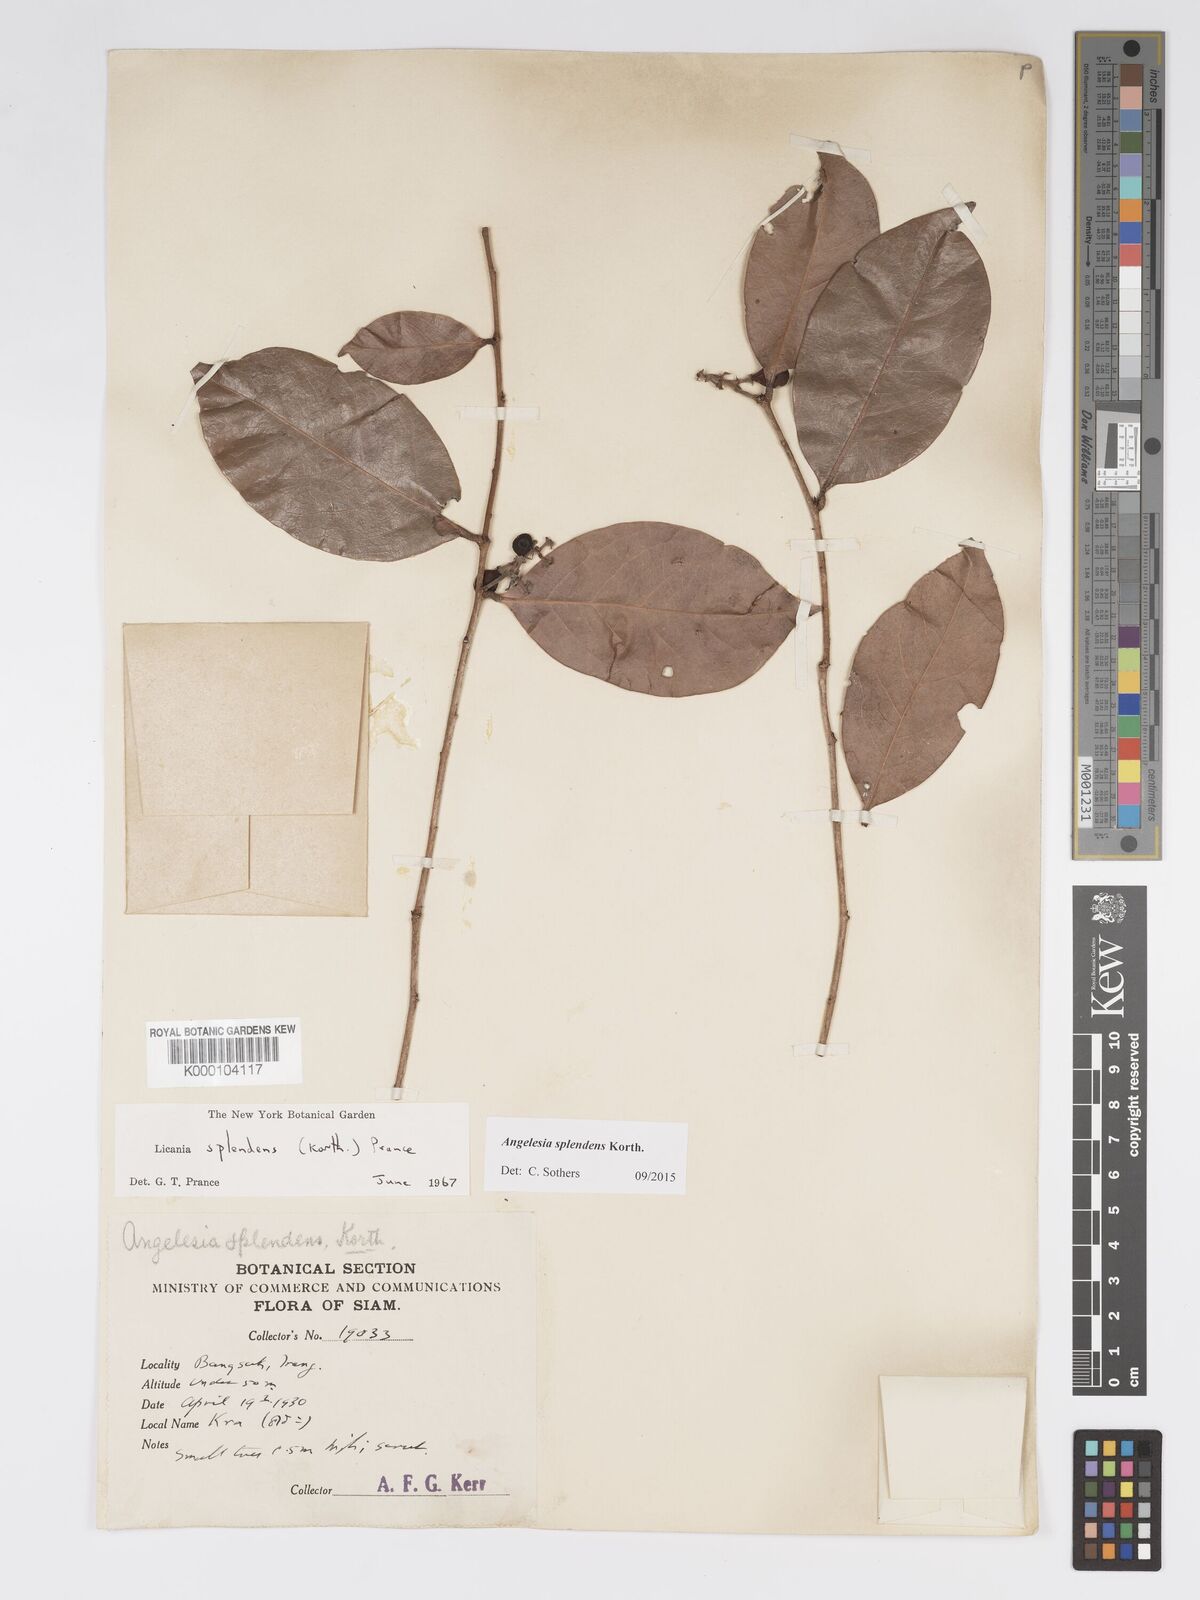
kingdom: Plantae
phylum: Tracheophyta
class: Magnoliopsida
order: Malpighiales
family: Chrysobalanaceae
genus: Angelesia
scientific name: Angelesia splendens
